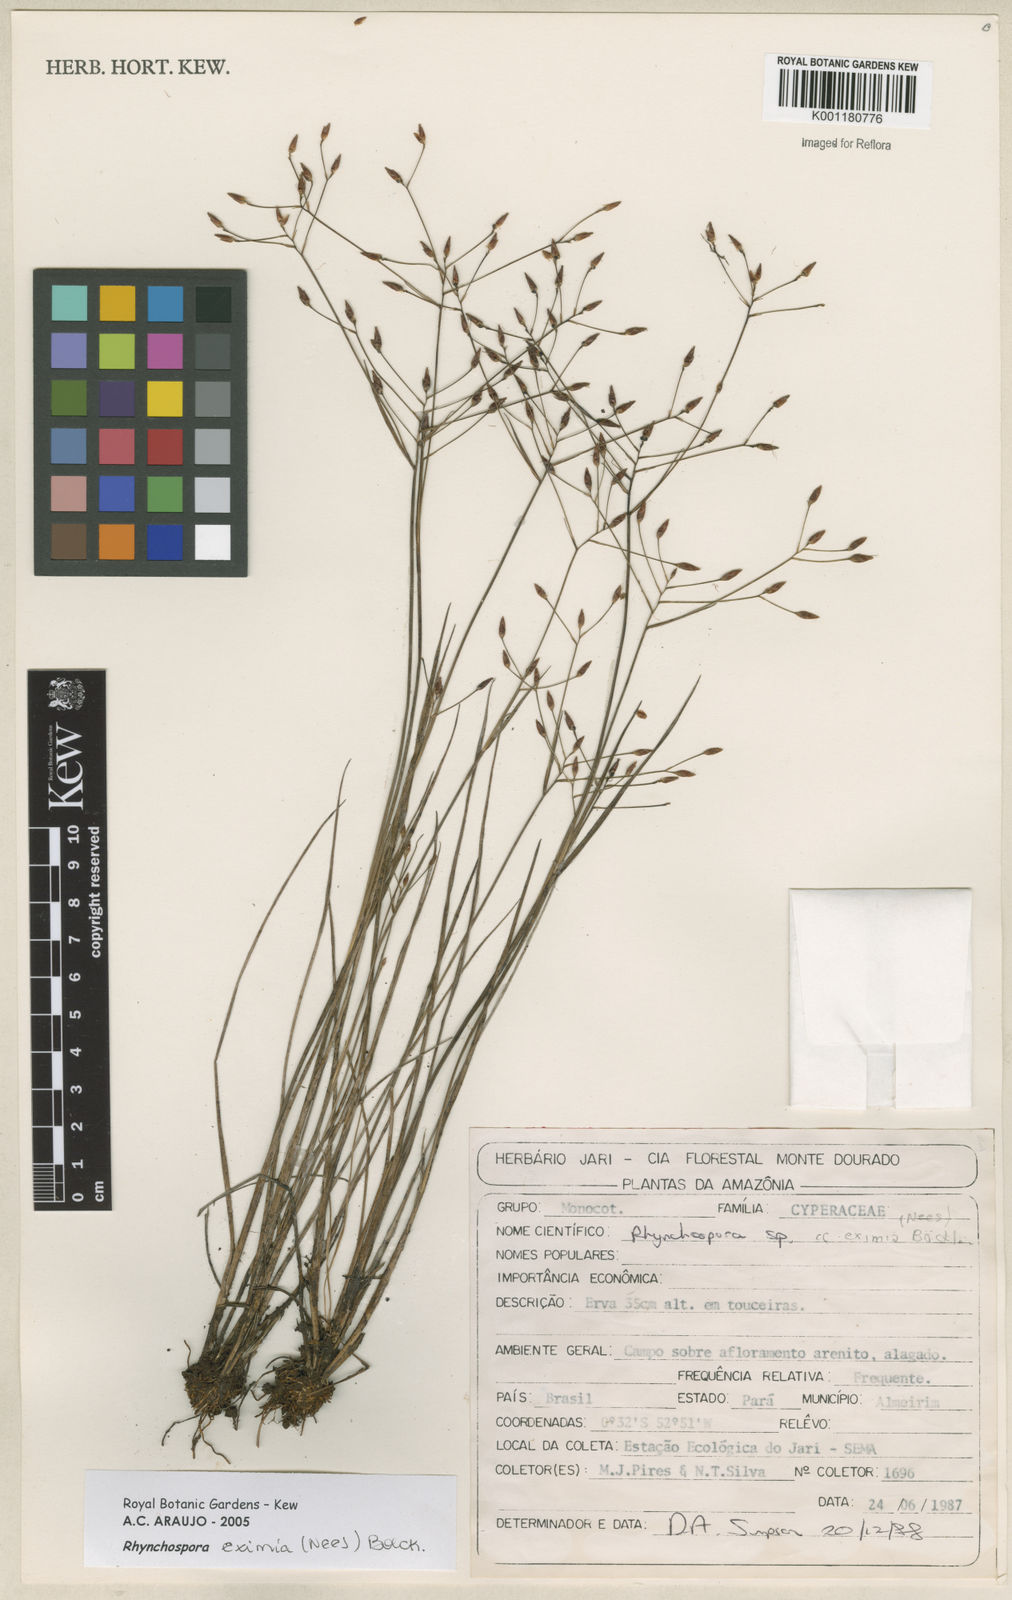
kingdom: Plantae
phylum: Tracheophyta
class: Liliopsida
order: Poales
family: Cyperaceae
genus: Rhynchospora
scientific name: Rhynchospora eximia
